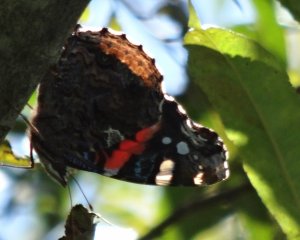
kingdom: Animalia
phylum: Arthropoda
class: Insecta
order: Lepidoptera
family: Nymphalidae
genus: Vanessa
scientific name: Vanessa atalanta
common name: Red Admiral
